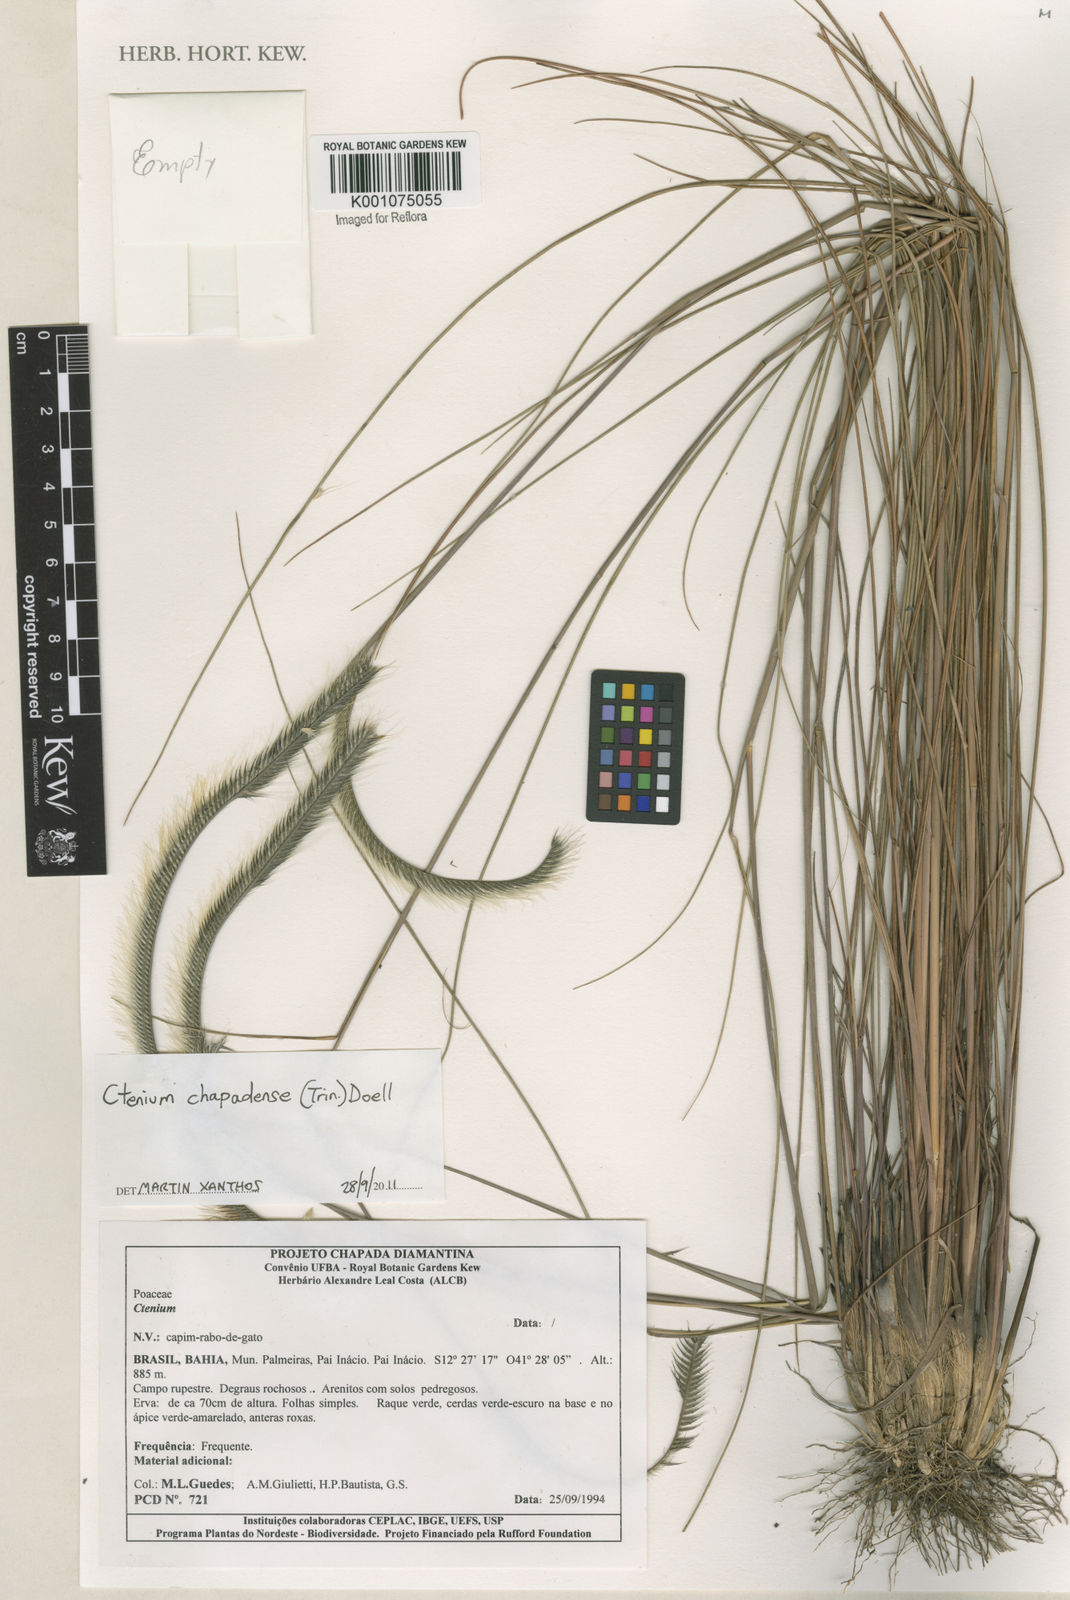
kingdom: Plantae
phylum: Tracheophyta
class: Liliopsida
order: Poales
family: Poaceae
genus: Ctenium
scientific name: Ctenium
